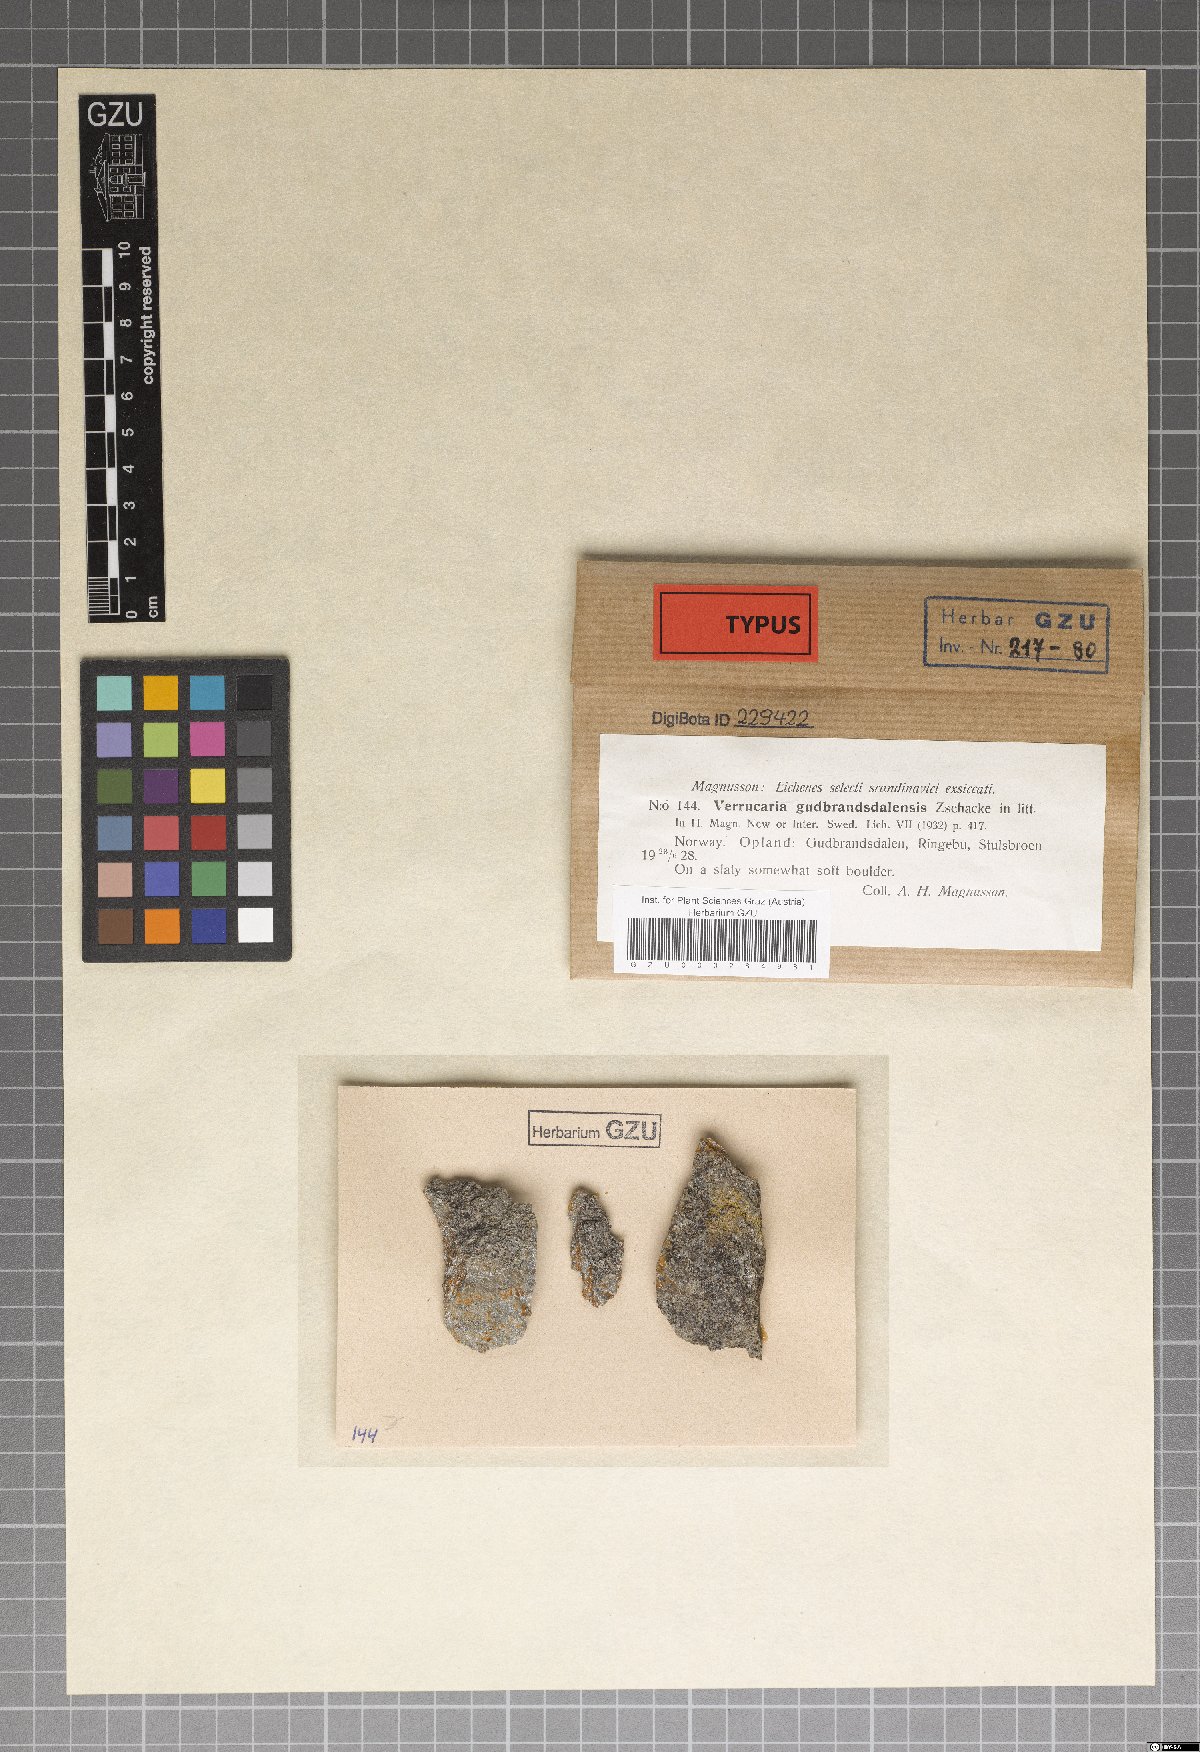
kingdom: Fungi
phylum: Ascomycota
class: Eurotiomycetes
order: Verrucariales
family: Verrucariaceae
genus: Verrucaria
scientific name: Verrucaria gudbrandsdalensis
